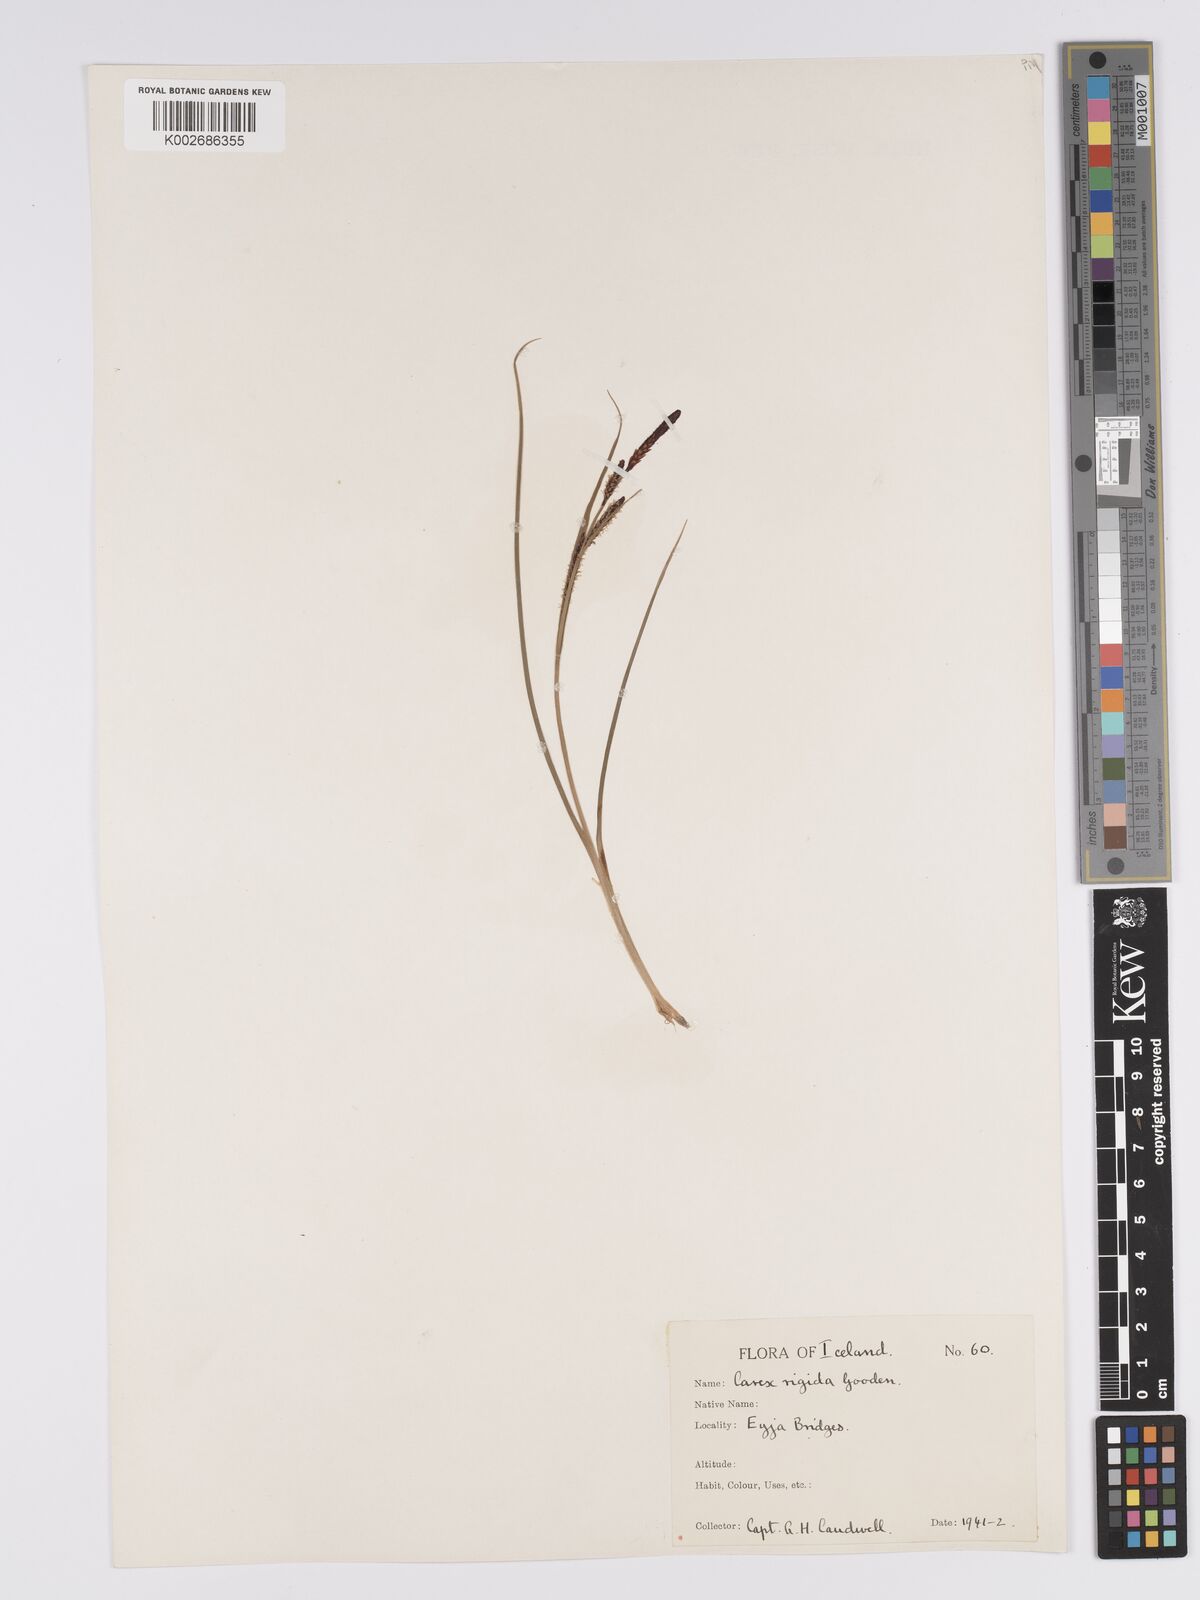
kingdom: Plantae
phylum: Tracheophyta
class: Liliopsida
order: Poales
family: Cyperaceae
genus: Carex
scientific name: Carex bigelowii
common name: Stiff sedge
